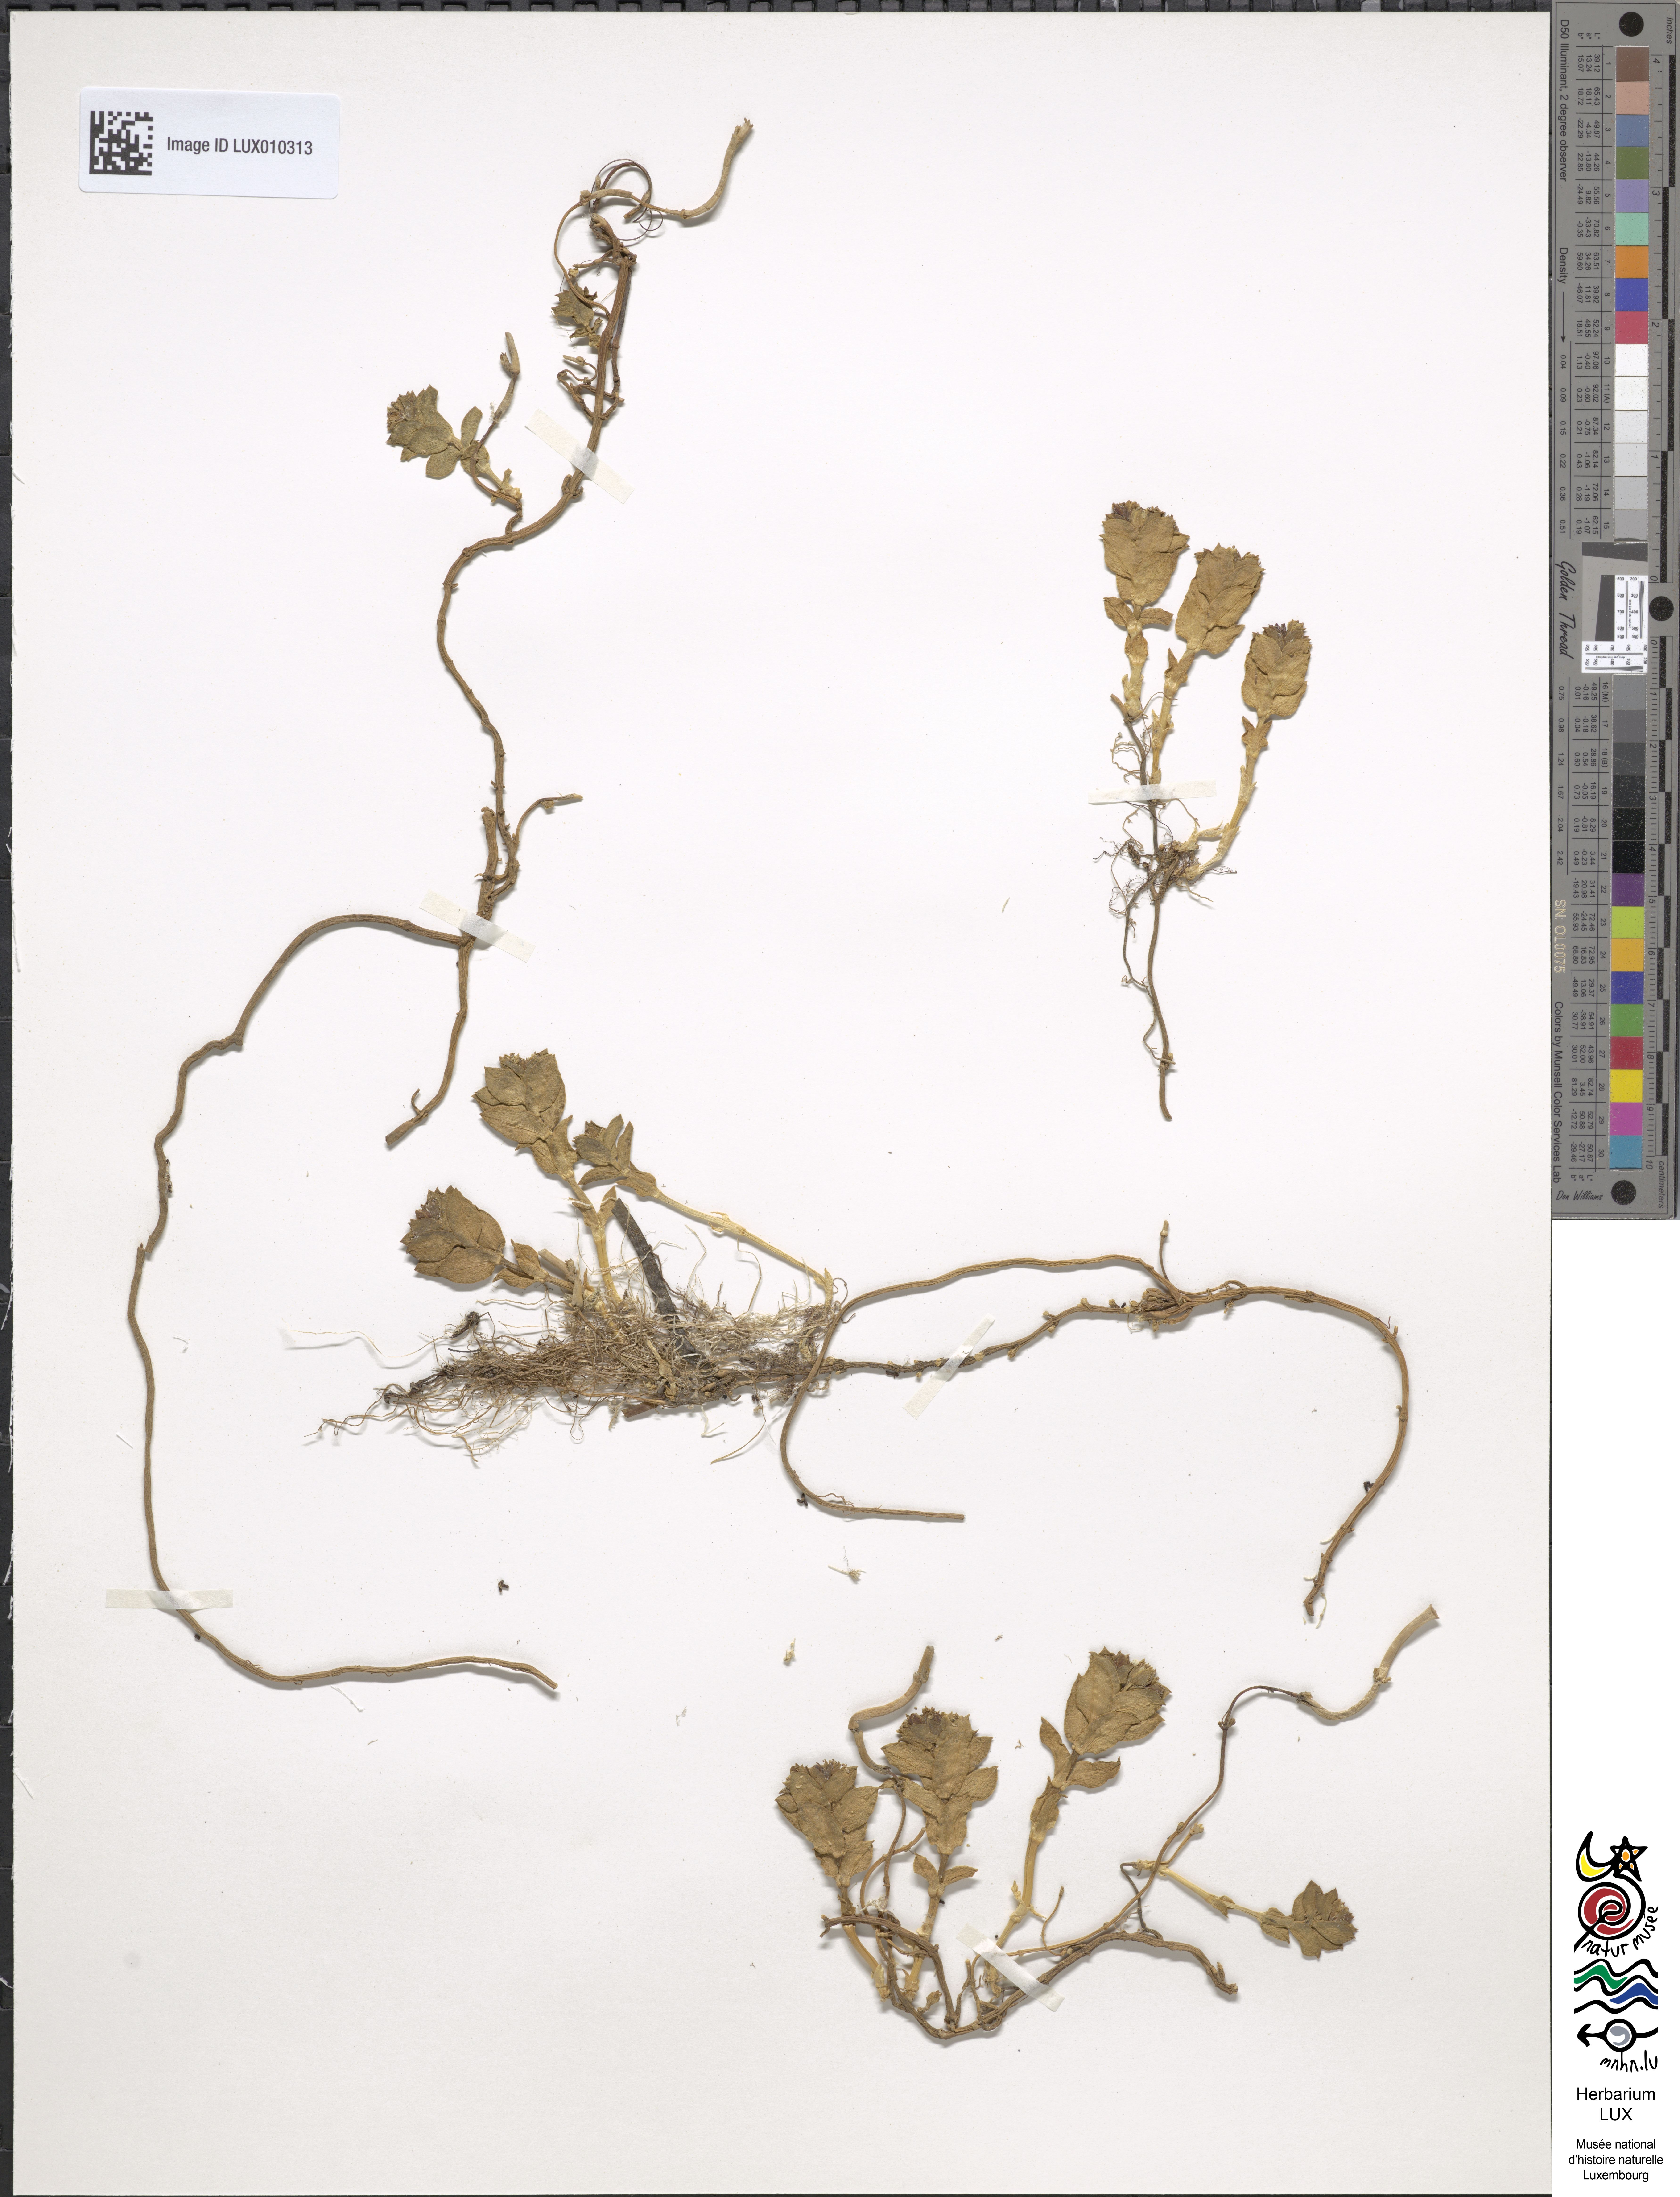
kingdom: Plantae
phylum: Tracheophyta
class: Magnoliopsida
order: Caryophyllales
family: Caryophyllaceae
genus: Honckenya
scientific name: Honckenya peploides
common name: Sea sandwort
